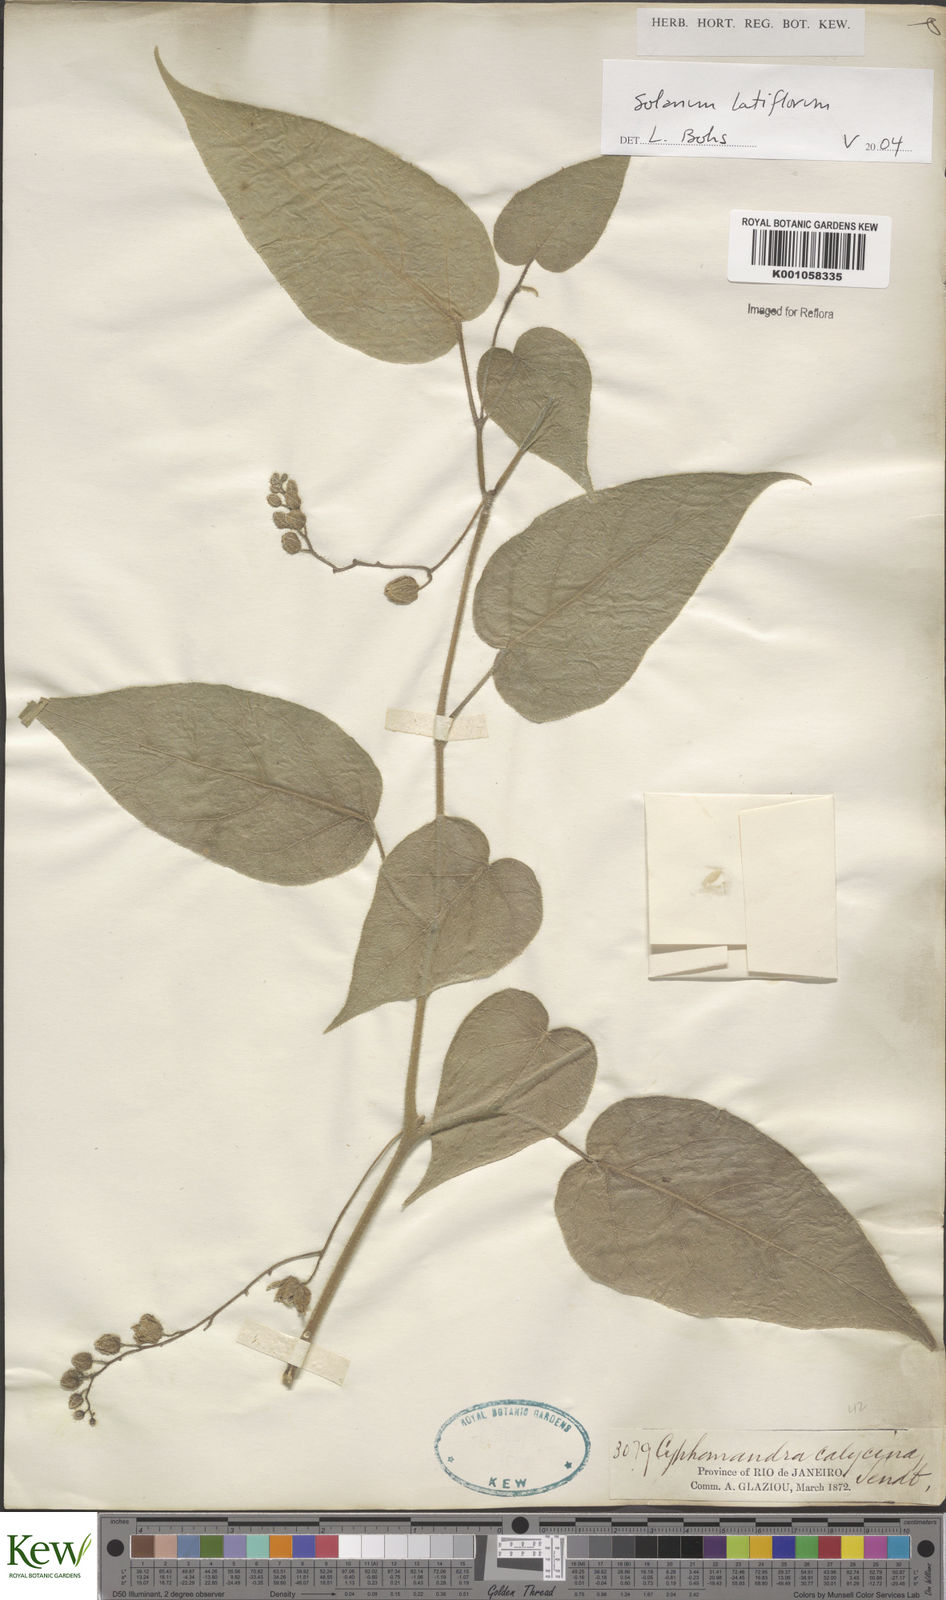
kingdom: Plantae
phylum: Tracheophyta
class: Magnoliopsida
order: Solanales
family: Solanaceae
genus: Solanum
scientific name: Solanum latiflorum
